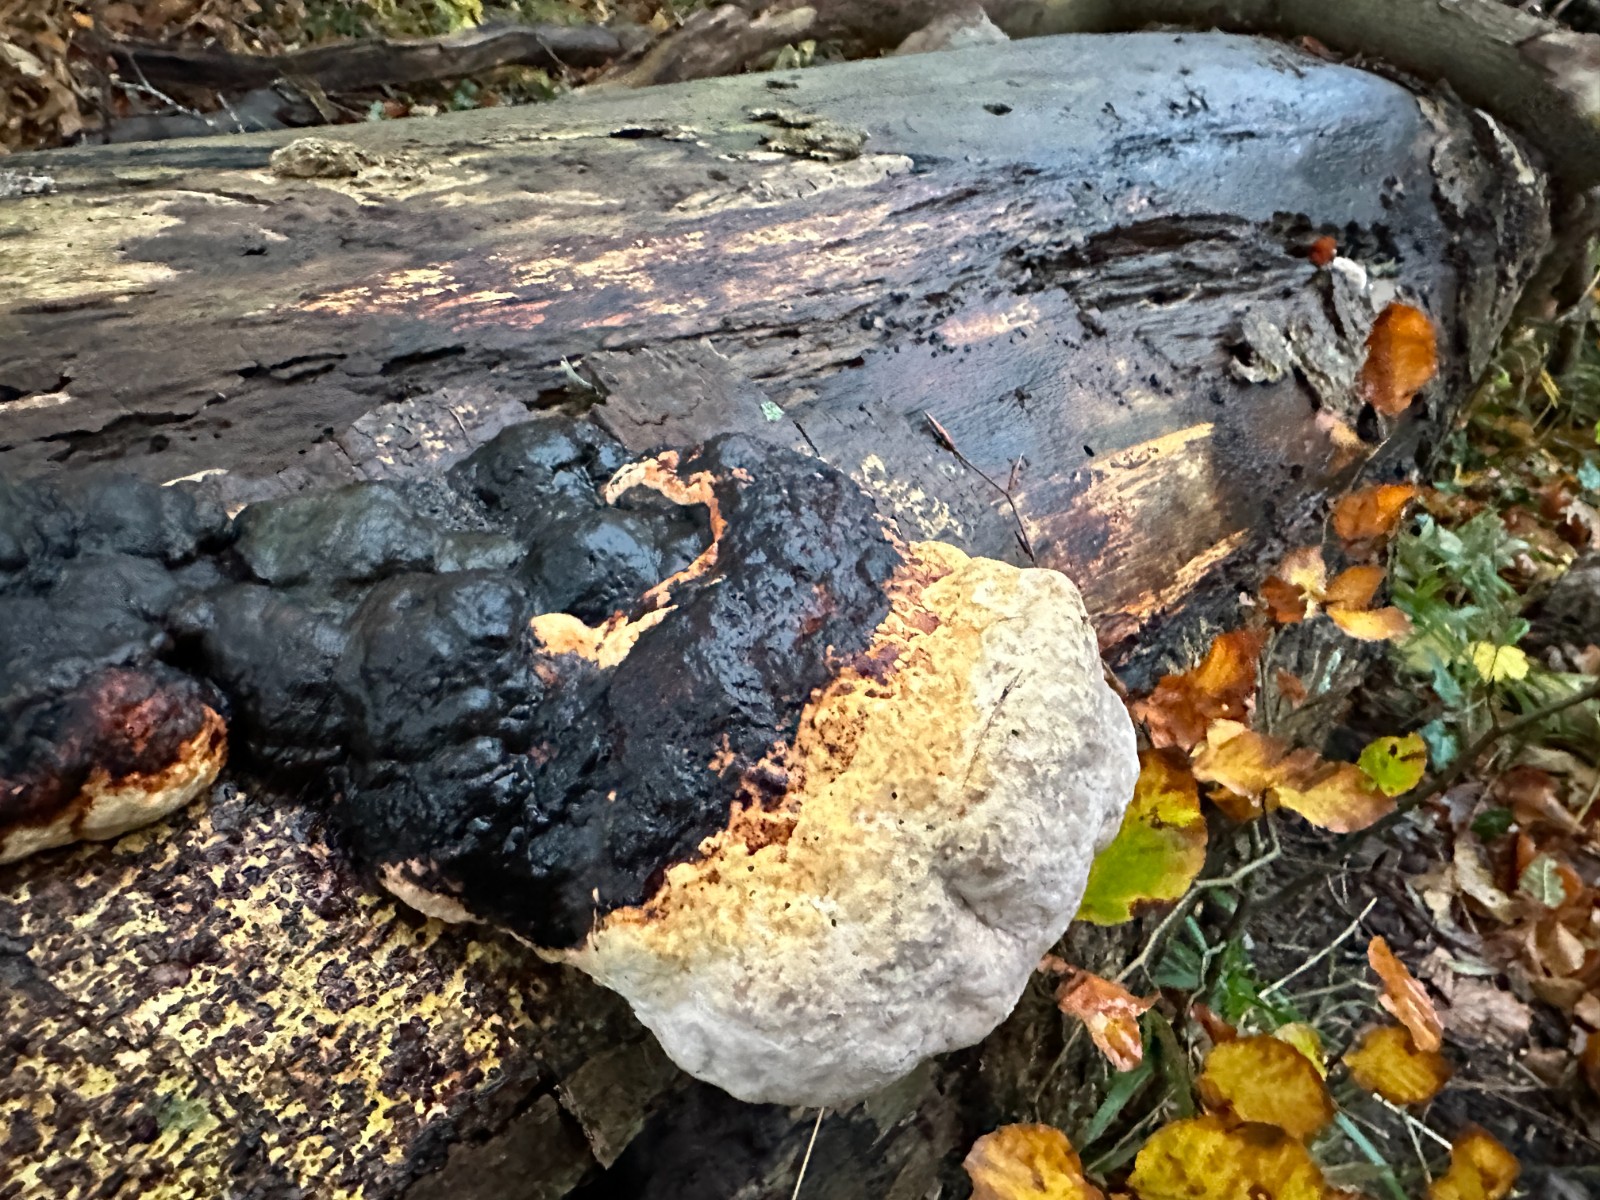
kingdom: Fungi
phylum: Basidiomycota
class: Agaricomycetes
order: Polyporales
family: Fomitopsidaceae
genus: Fomitopsis
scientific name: Fomitopsis pinicola
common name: randbæltet hovporesvamp
